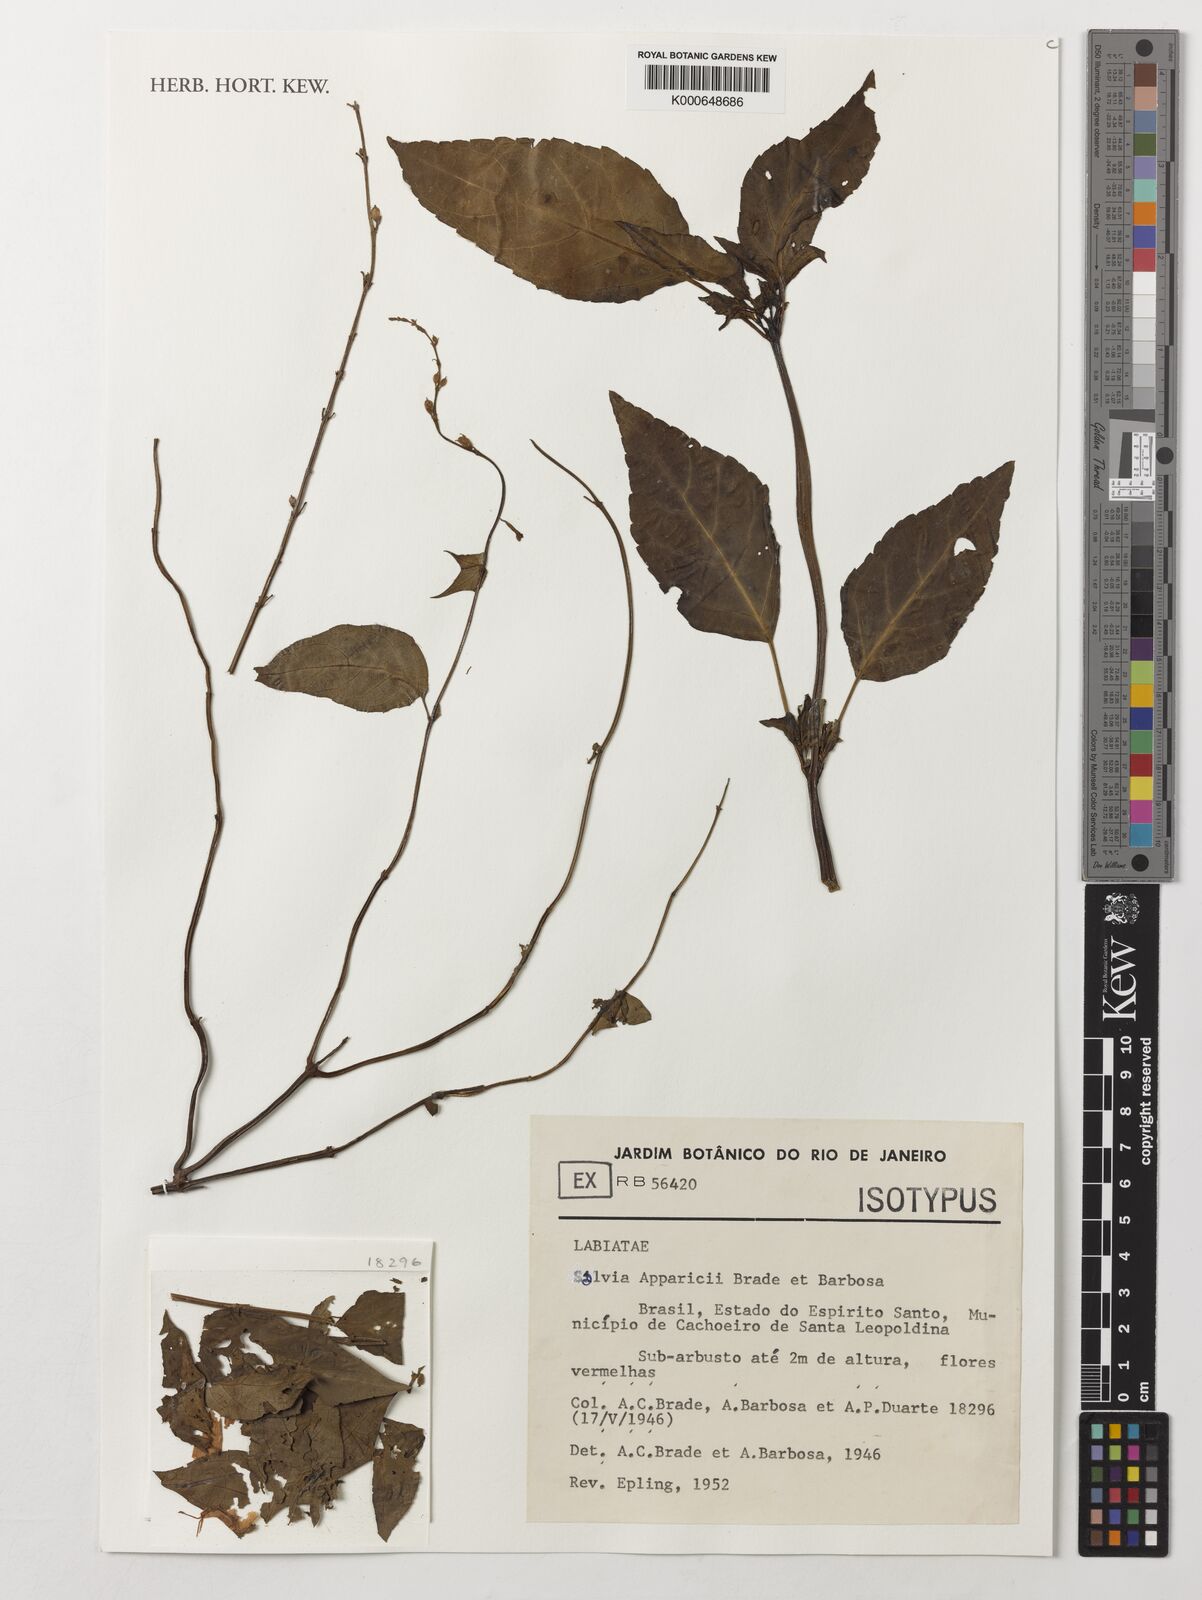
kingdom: Plantae
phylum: Tracheophyta
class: Magnoliopsida
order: Lamiales
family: Lamiaceae
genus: Salvia
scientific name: Salvia apparicii
